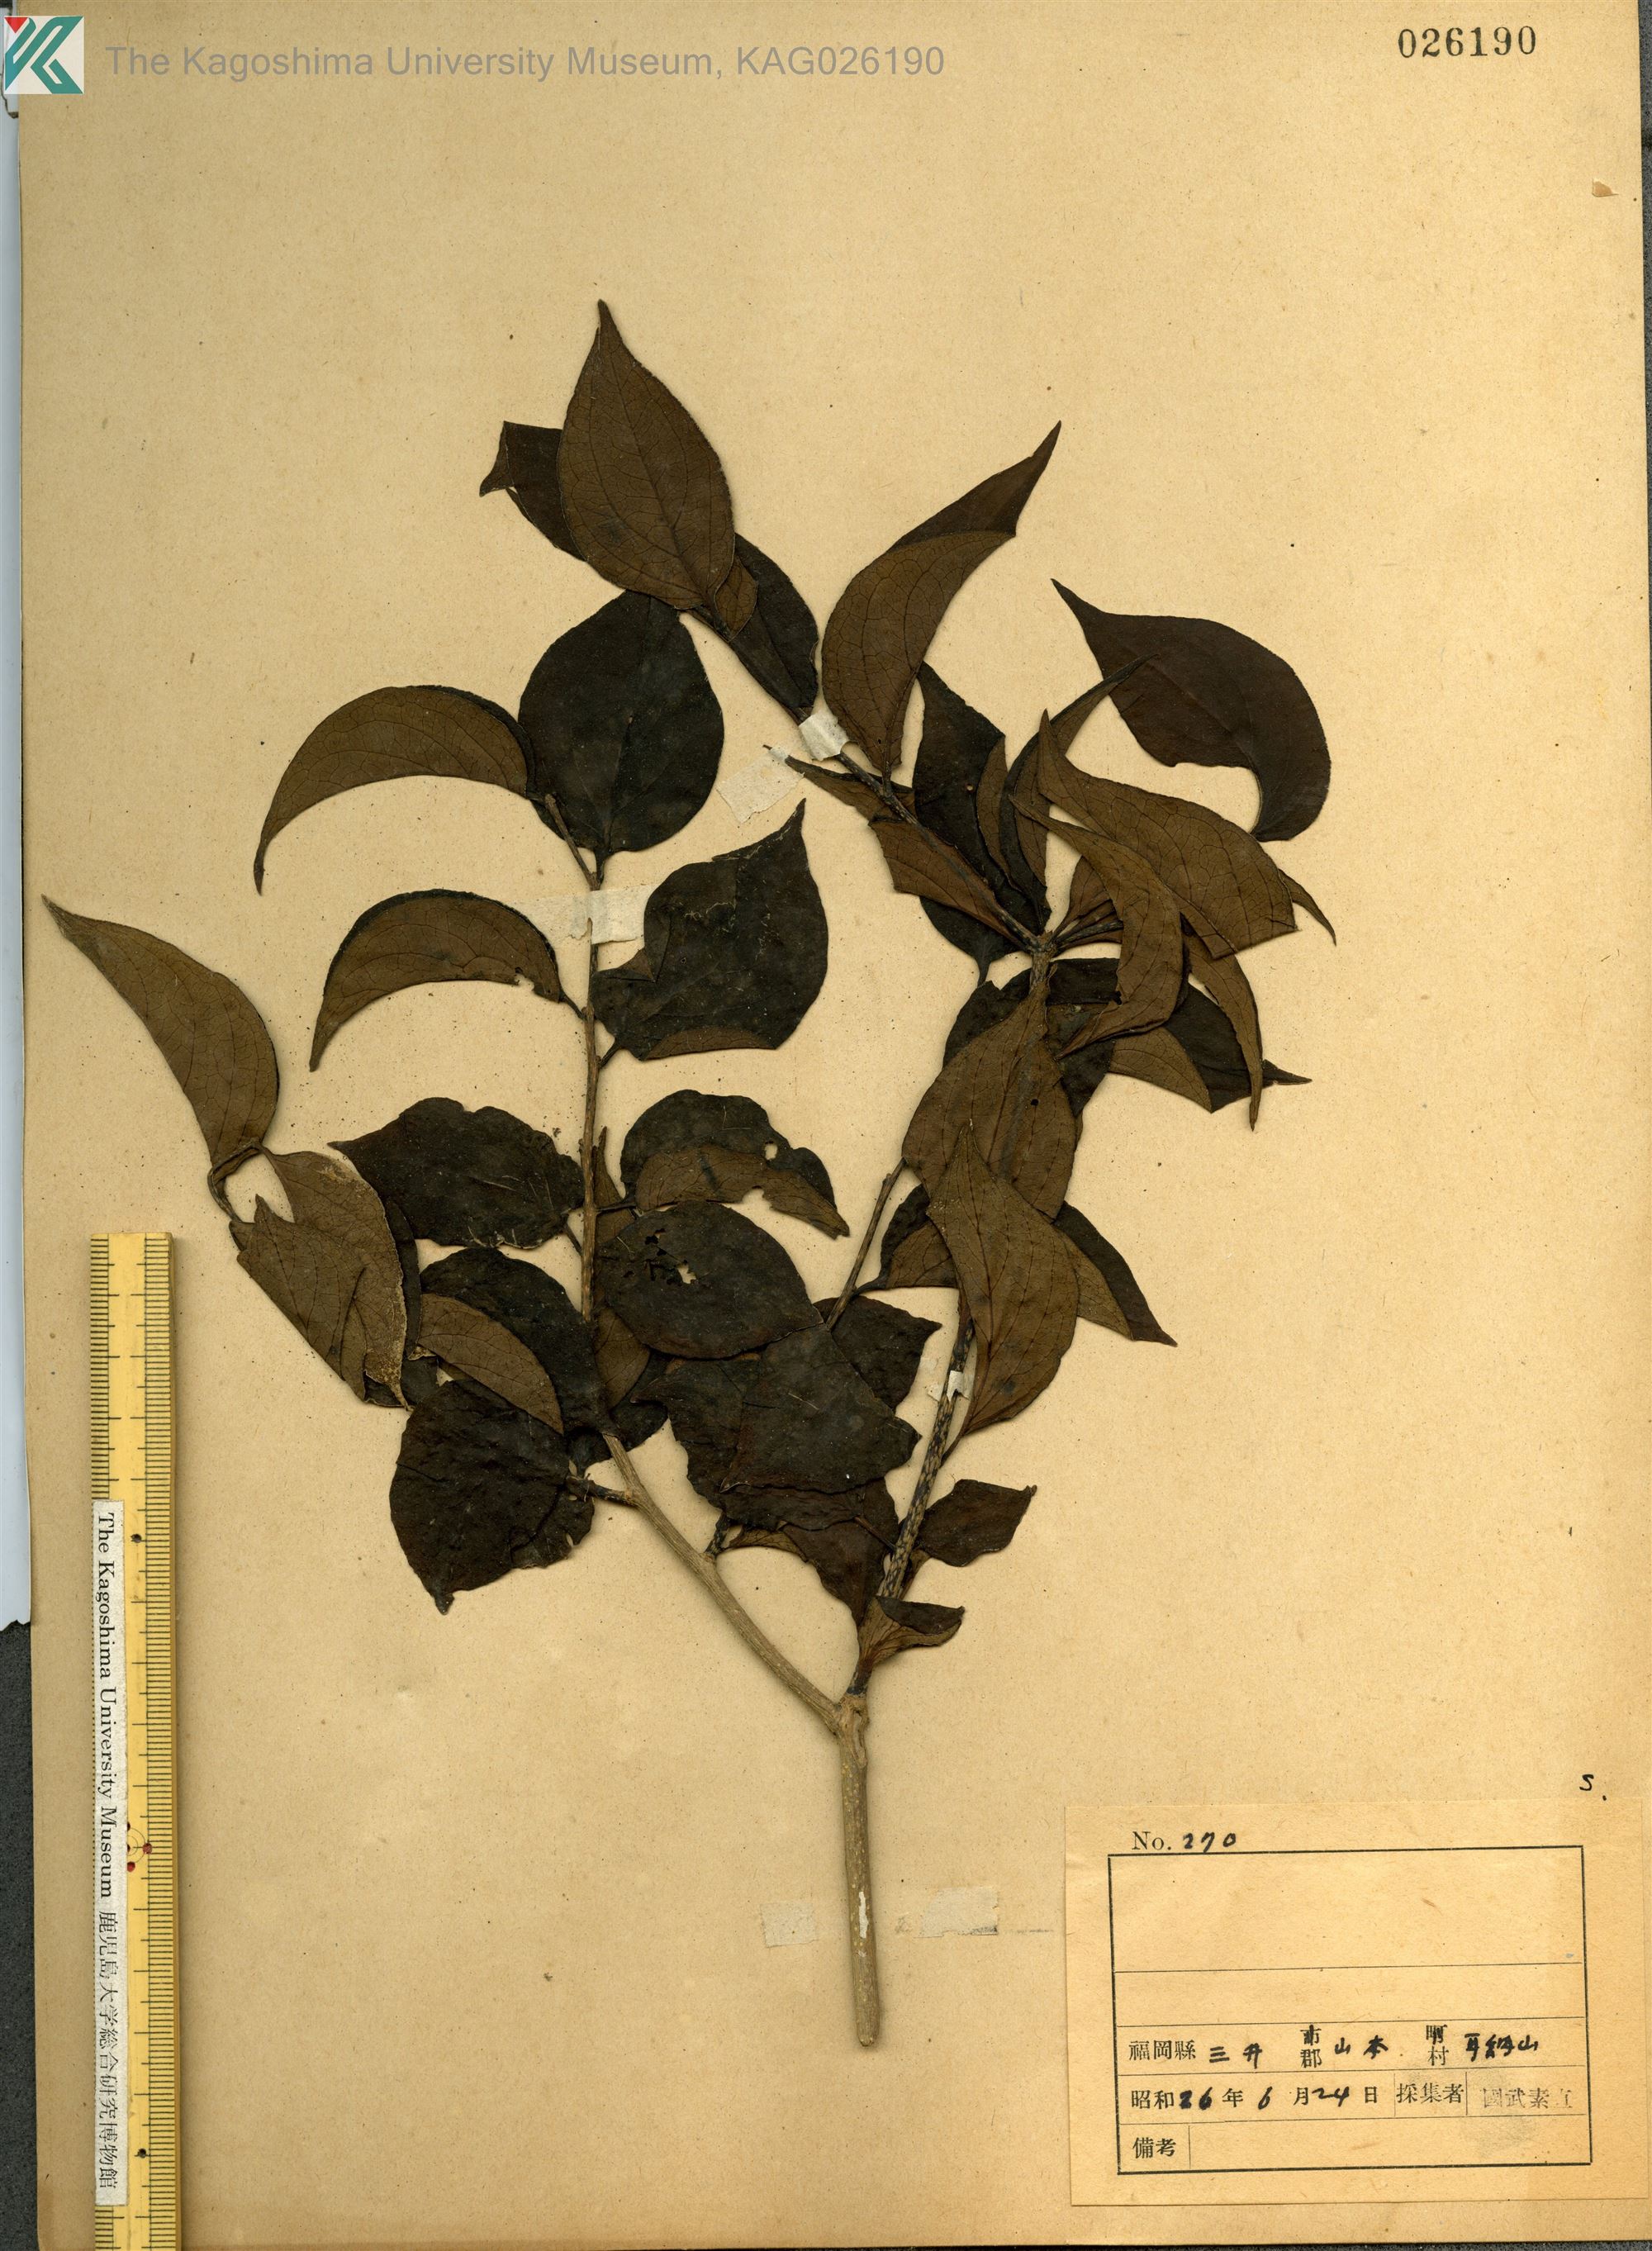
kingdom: Plantae
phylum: Tracheophyta
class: Magnoliopsida
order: Santalales
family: Schoepfiaceae
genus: Schoepfia
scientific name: Schoepfia jasminodora
